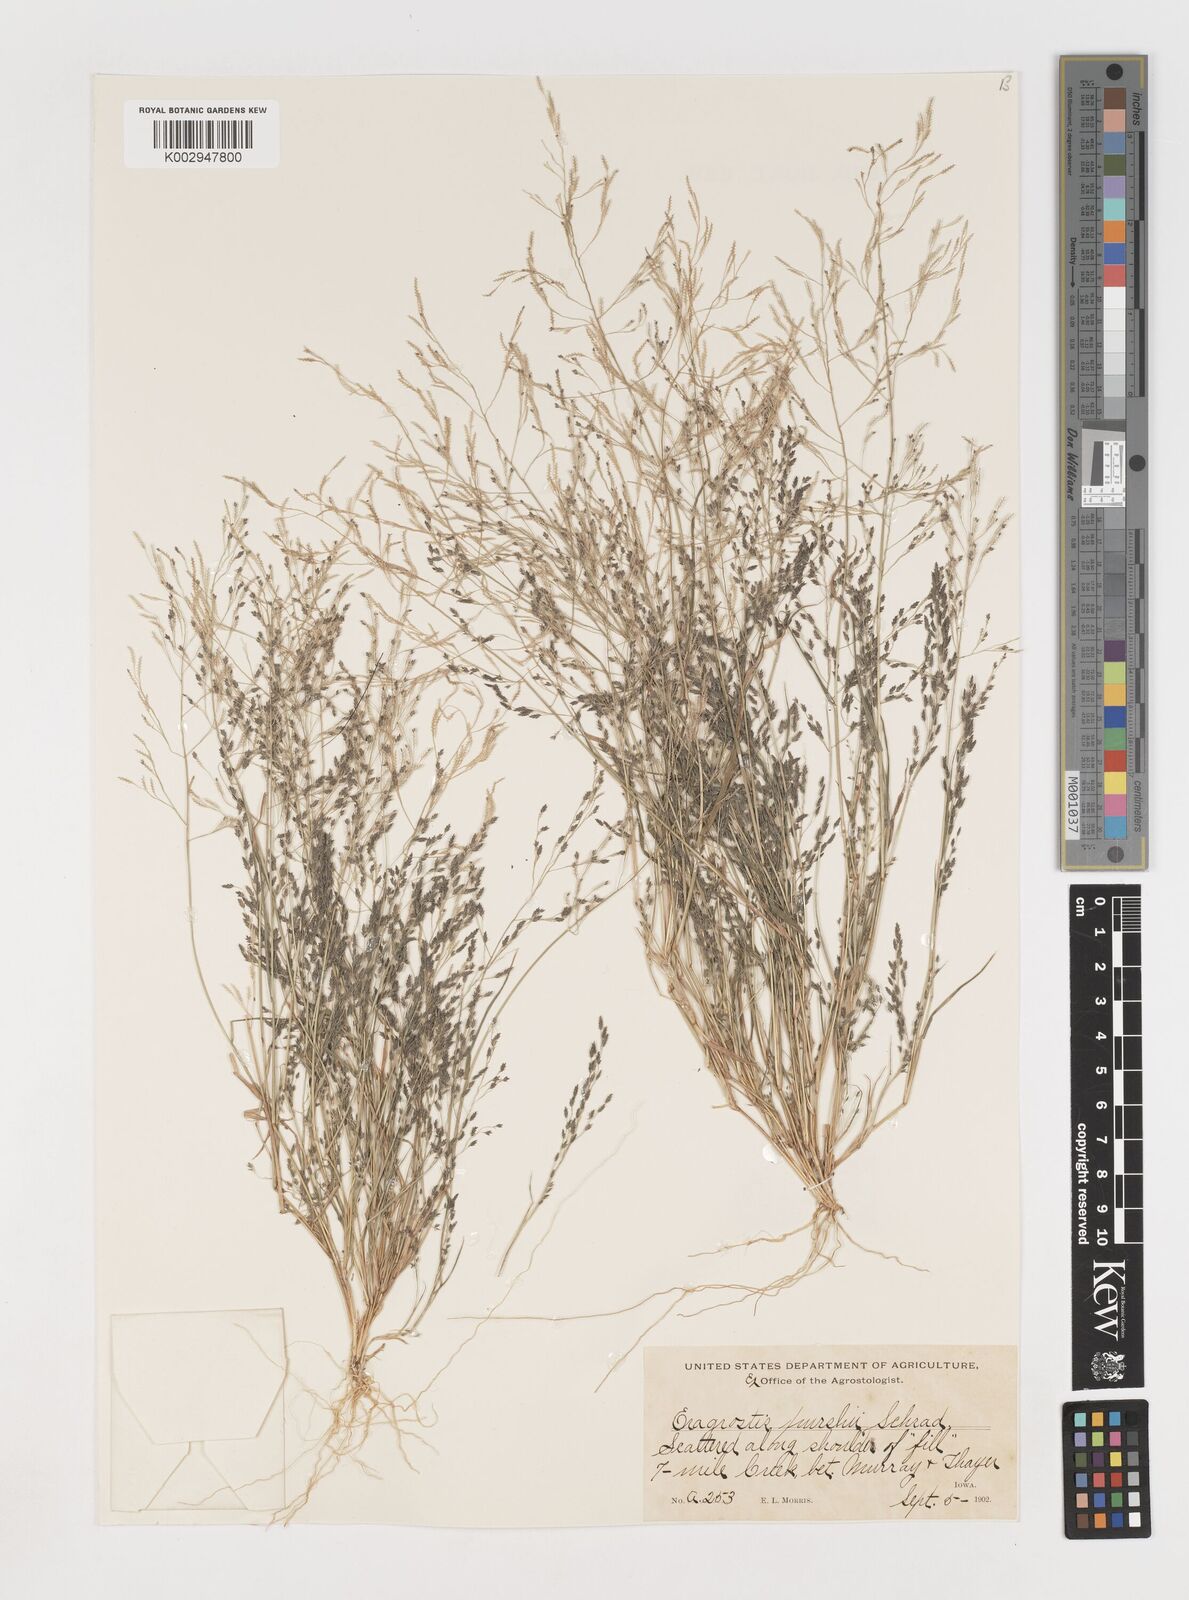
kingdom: Plantae
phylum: Tracheophyta
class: Liliopsida
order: Poales
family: Poaceae
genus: Eragrostis
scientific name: Eragrostis pectinacea
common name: Tufted lovegrass
